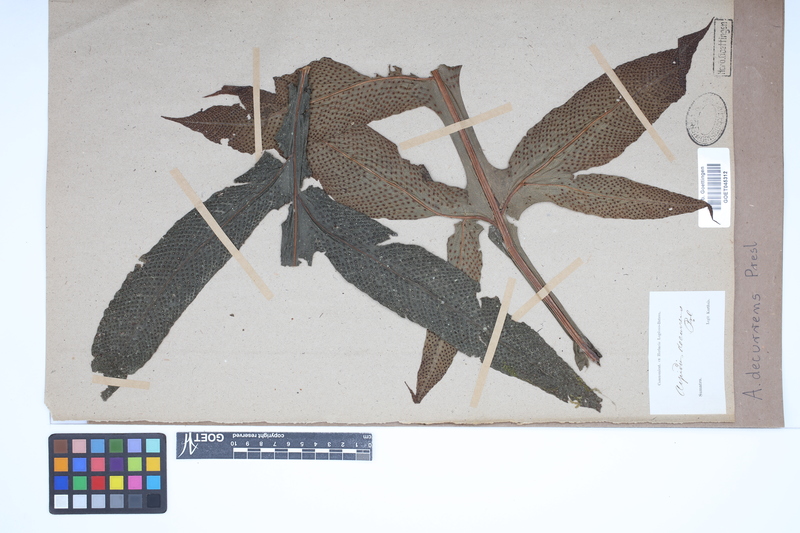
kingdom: Plantae
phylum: Tracheophyta
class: Polypodiopsida
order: Polypodiales
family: Tectariaceae
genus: Tectaria
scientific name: Tectaria decurrens
